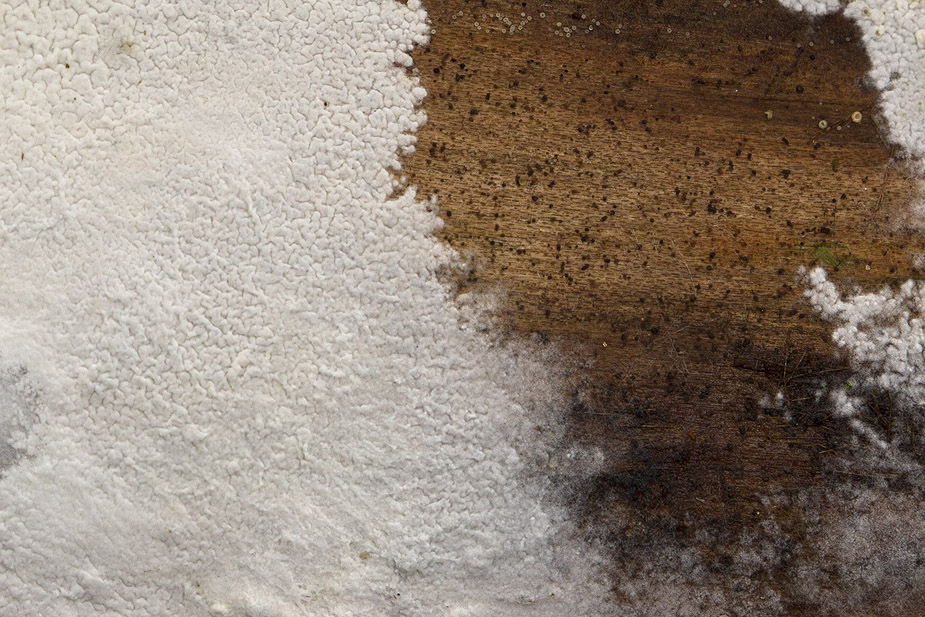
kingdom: Fungi
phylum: Basidiomycota
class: Agaricomycetes
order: Atheliales
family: Atheliaceae
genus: Athelia
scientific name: Athelia epiphylla
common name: almindelig barkhinde
